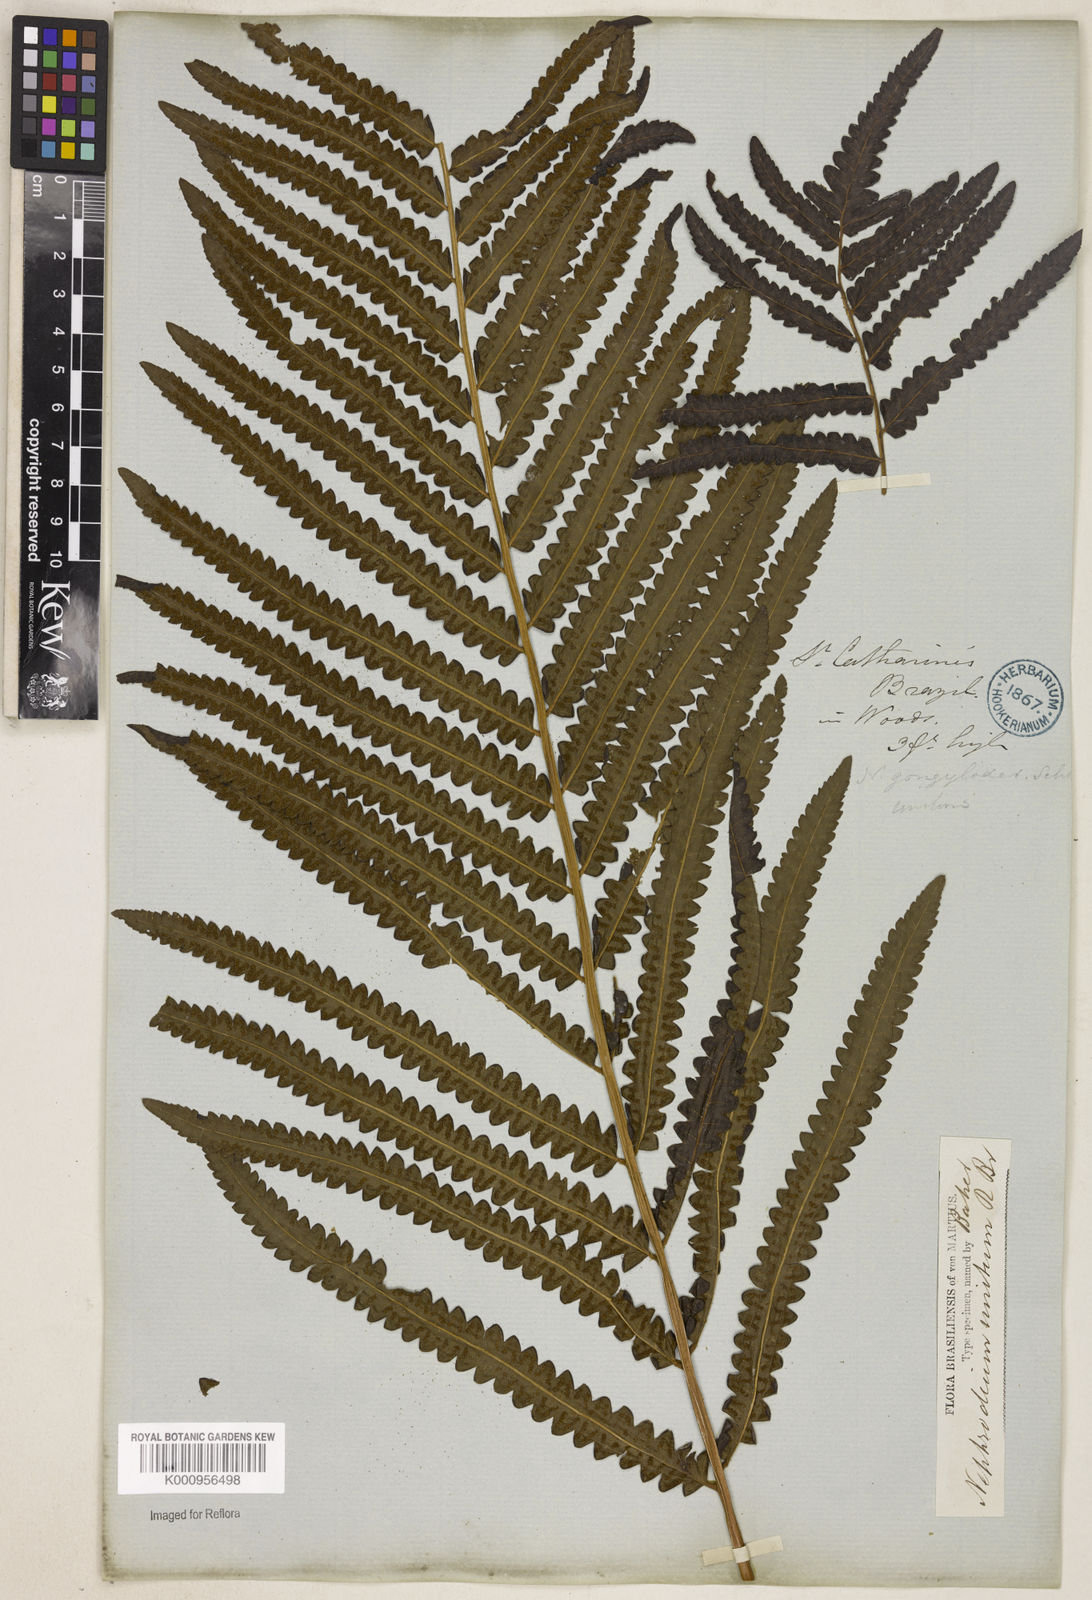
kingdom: Plantae
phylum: Tracheophyta
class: Polypodiopsida
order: Polypodiales
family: Thelypteridaceae
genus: Cyclosorus
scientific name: Cyclosorus interruptus
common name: Neke fern
